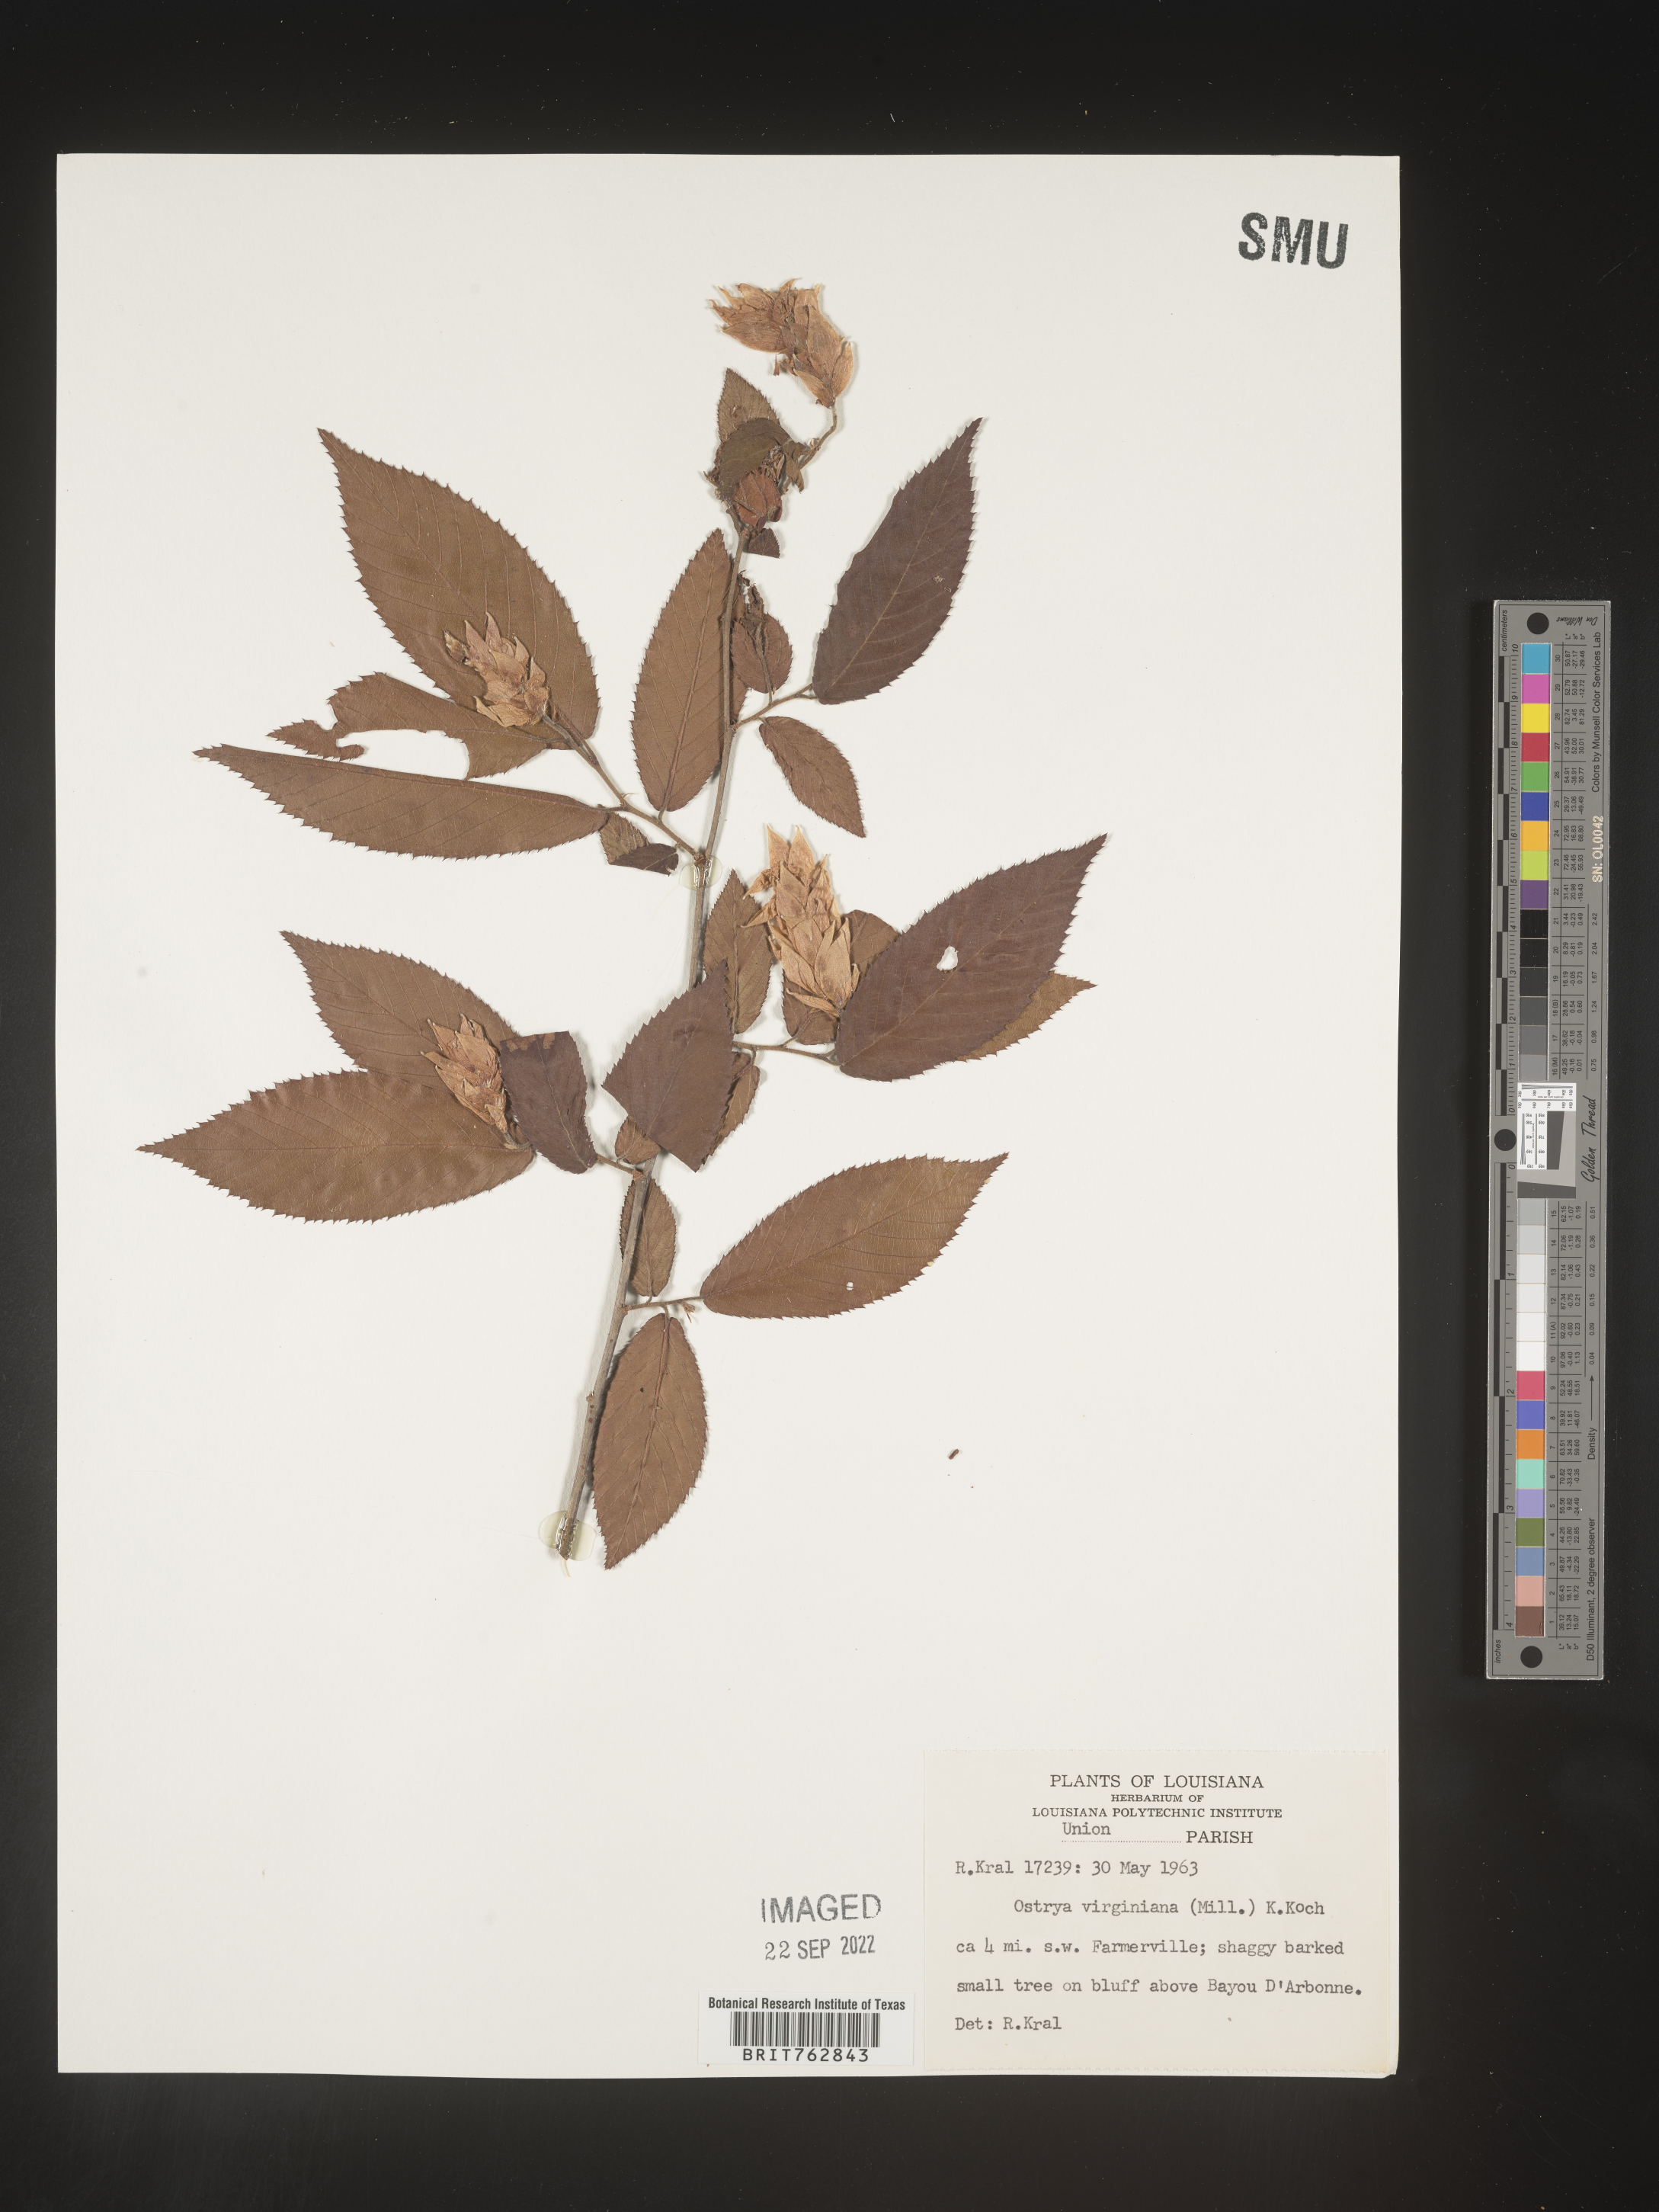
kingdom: Plantae
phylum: Tracheophyta
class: Magnoliopsida
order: Fagales
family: Betulaceae
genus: Ostrya
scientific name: Ostrya virginiana
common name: Ironwood
